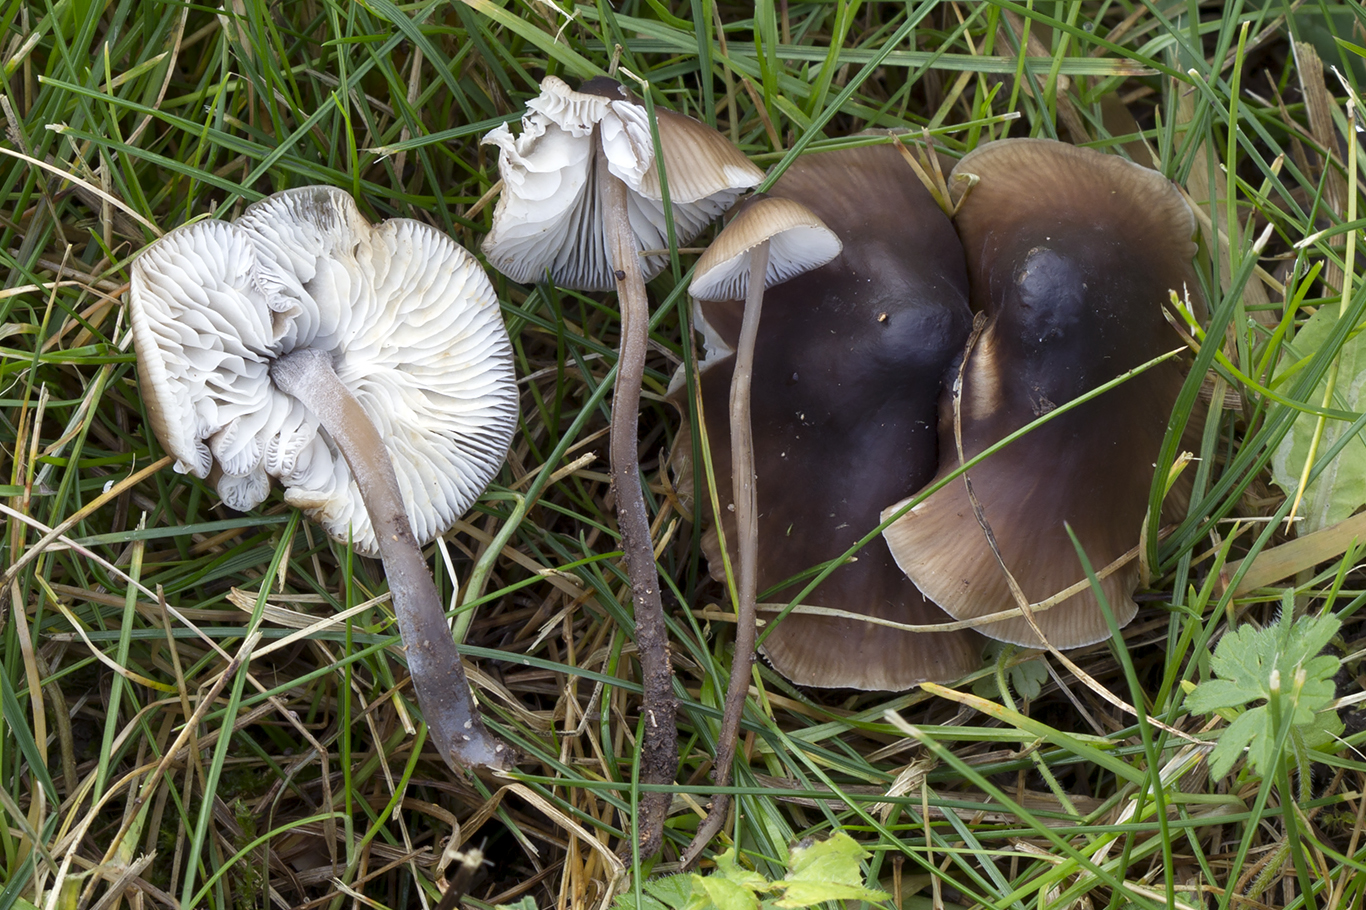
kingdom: Fungi
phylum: Basidiomycota
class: Agaricomycetes
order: Agaricales
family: Tricholomataceae
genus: Mycenella
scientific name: Mycenella trachyspora
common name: rødprikket dughat
